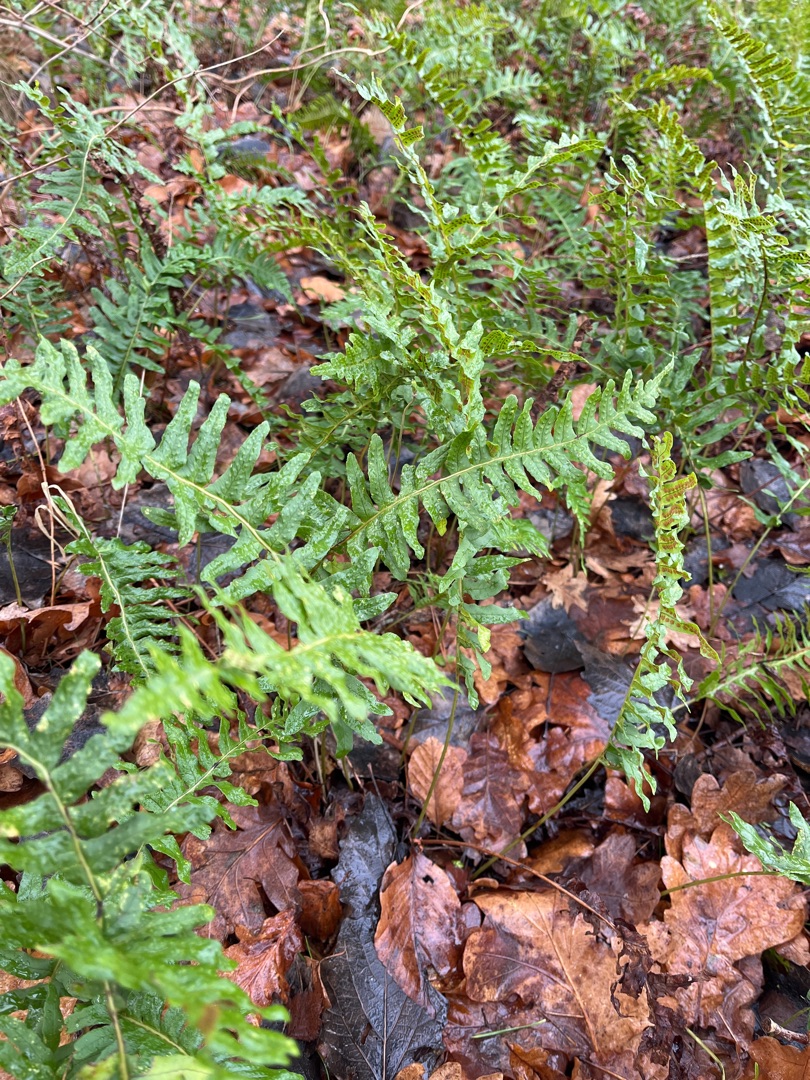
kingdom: Plantae
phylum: Tracheophyta
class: Polypodiopsida
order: Polypodiales
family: Polypodiaceae
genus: Polypodium
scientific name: Polypodium vulgare
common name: Almindelig engelsød
